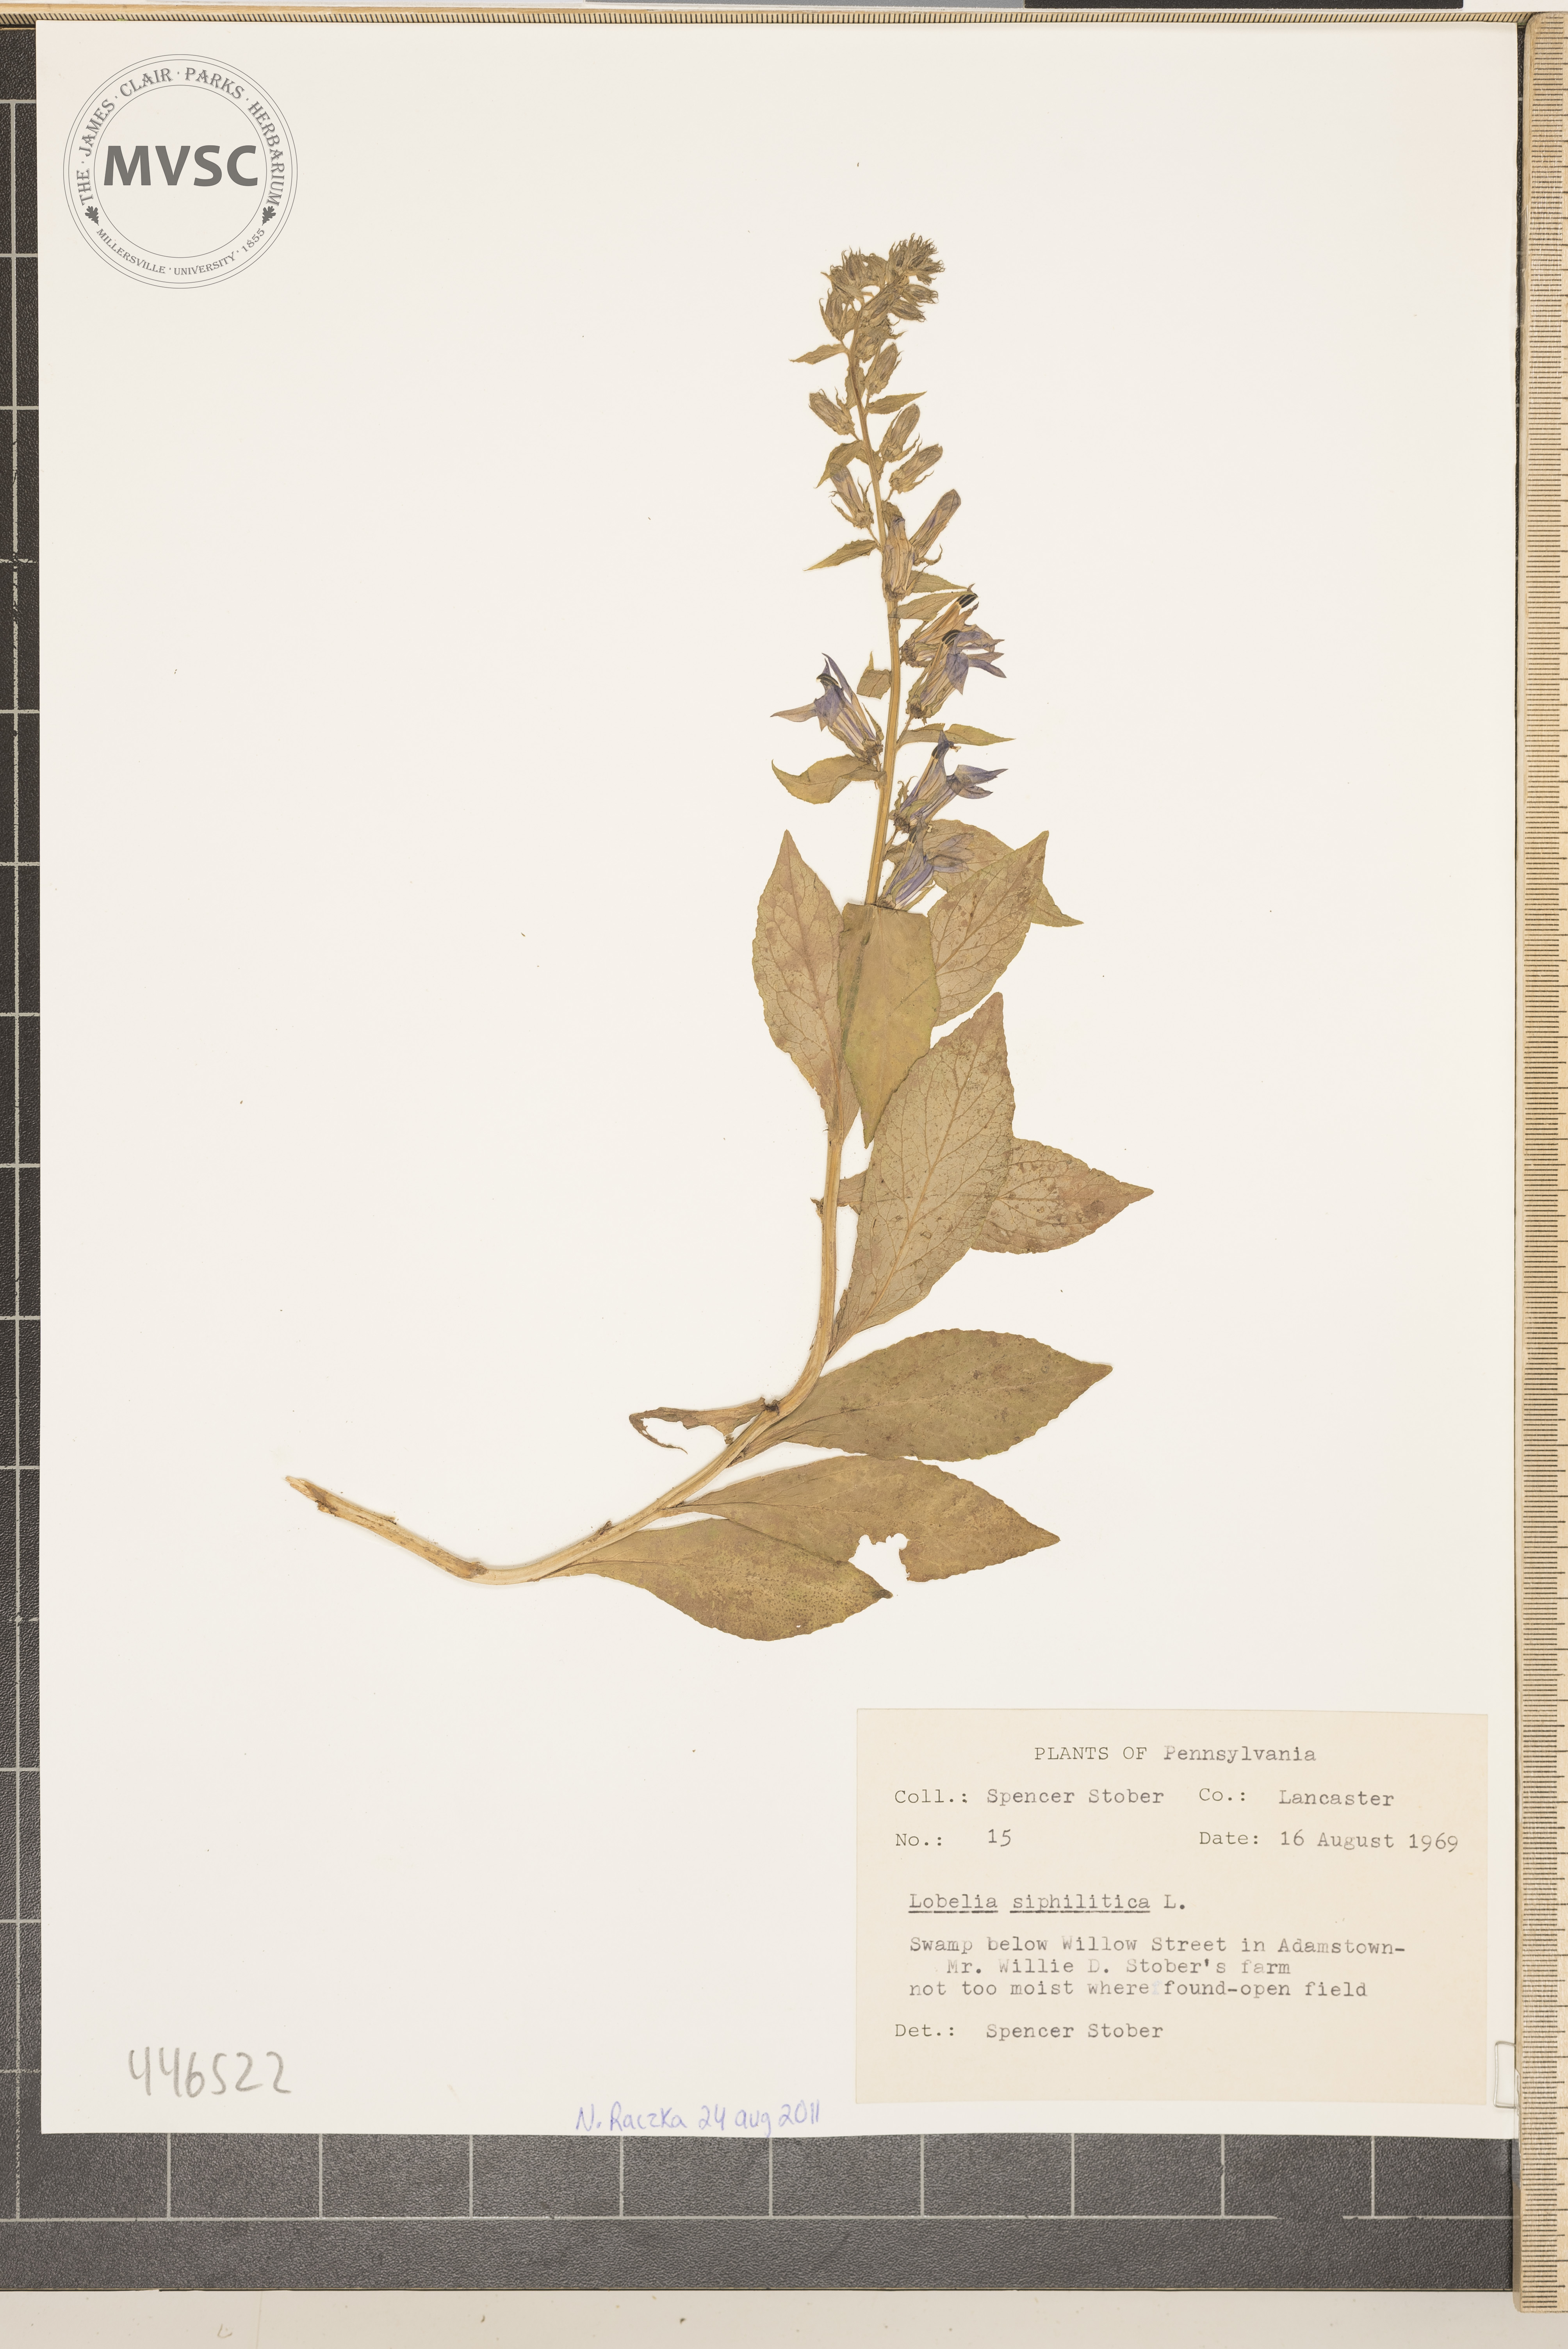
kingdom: Plantae
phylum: Tracheophyta
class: Magnoliopsida
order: Asterales
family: Campanulaceae
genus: Lobelia
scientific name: Lobelia siphilitica
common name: Great blue lobelia
